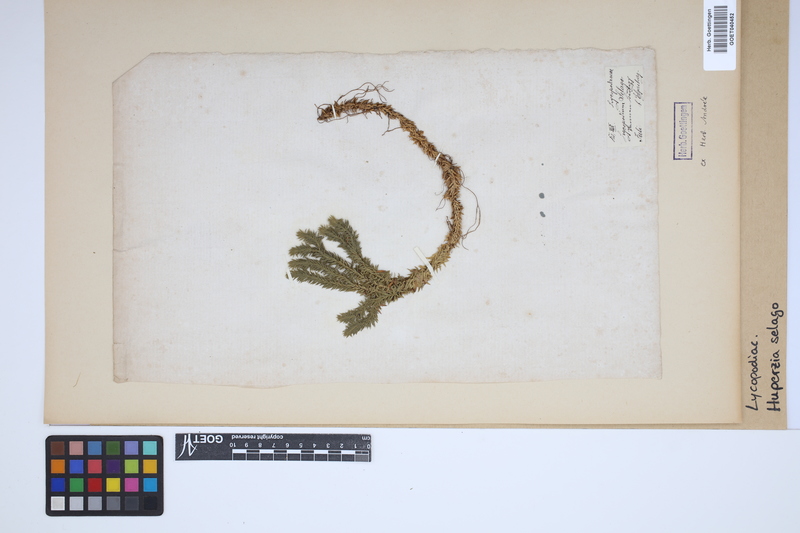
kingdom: Plantae
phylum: Tracheophyta
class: Lycopodiopsida
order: Lycopodiales
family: Lycopodiaceae
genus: Huperzia
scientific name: Huperzia selago
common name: Northern firmoss
